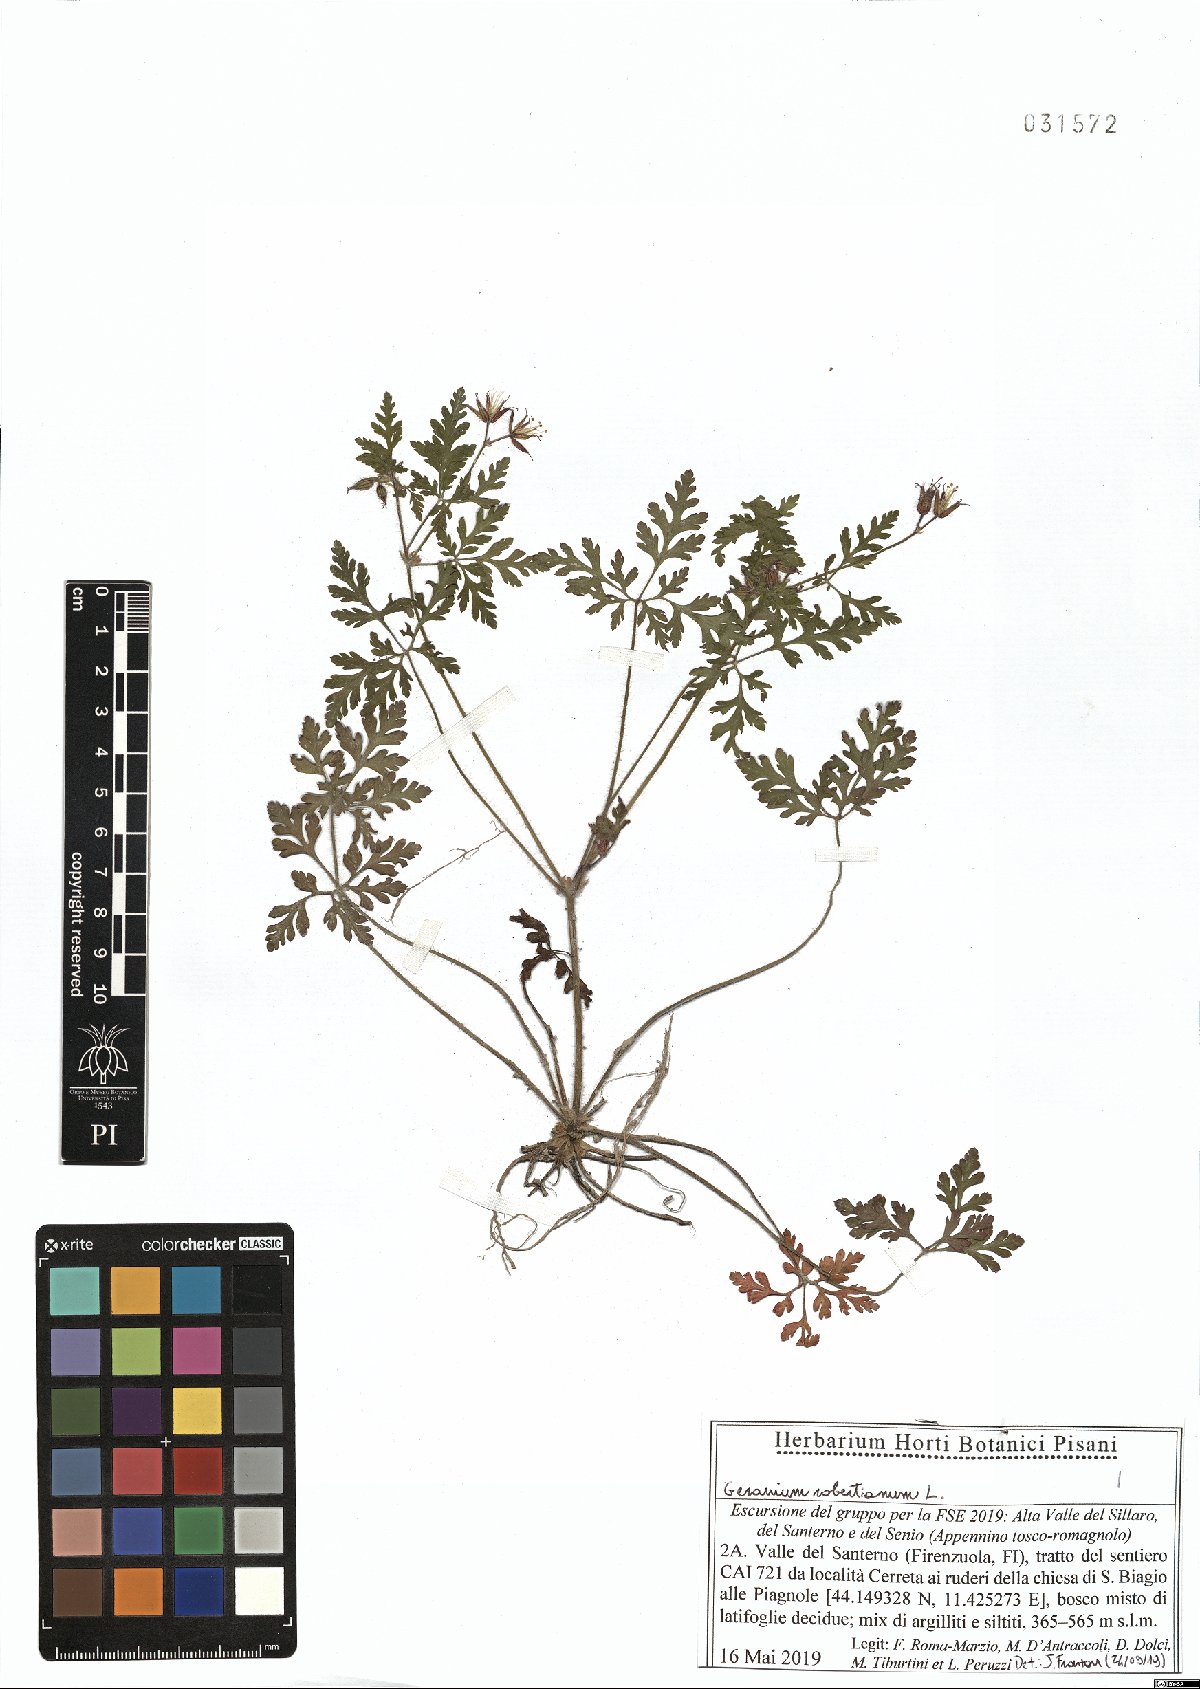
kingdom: Plantae
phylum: Tracheophyta
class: Magnoliopsida
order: Geraniales
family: Geraniaceae
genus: Geranium
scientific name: Geranium robertianum
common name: Herb-robert
